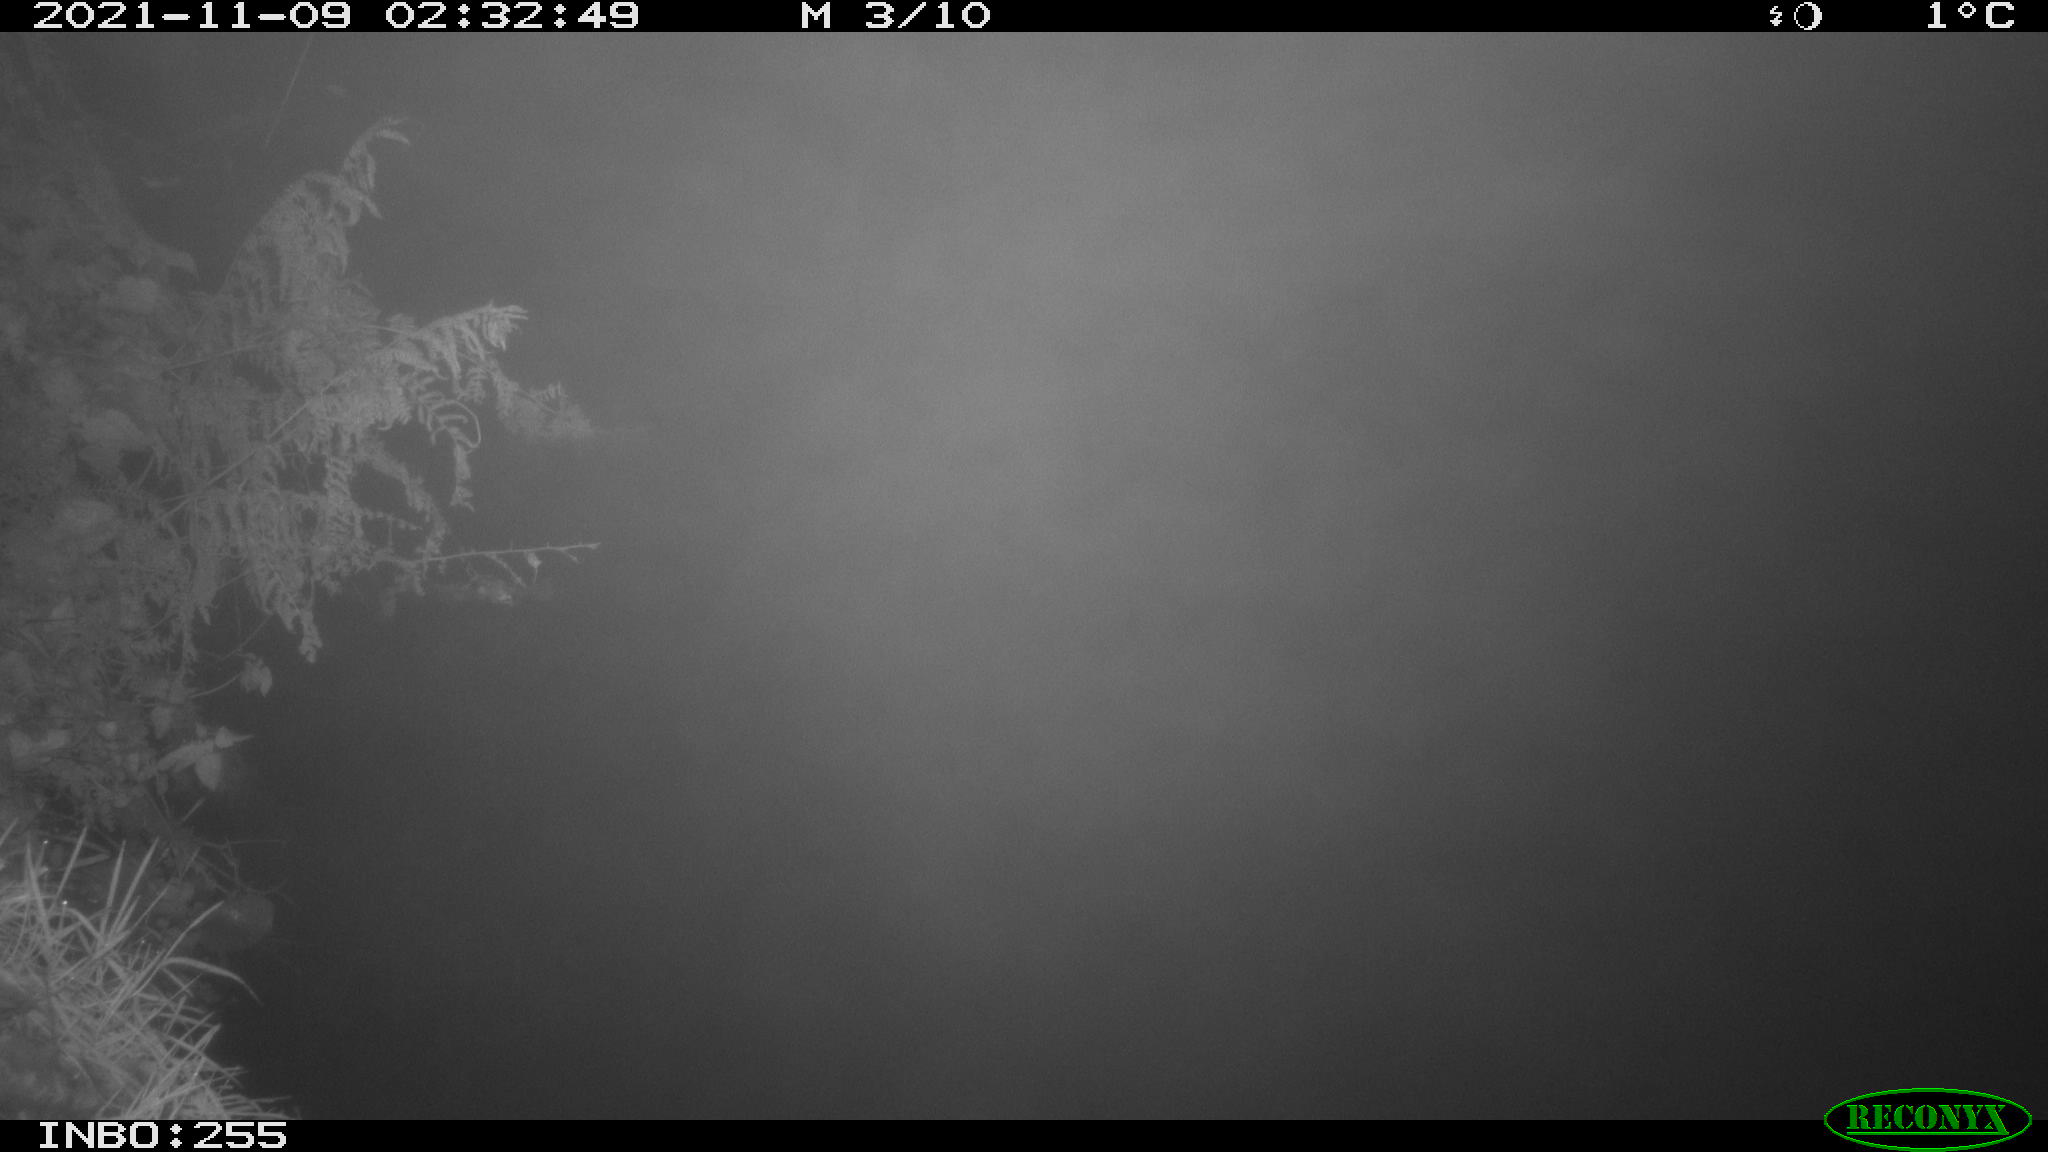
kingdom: Animalia
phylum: Chordata
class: Aves
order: Anseriformes
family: Anatidae
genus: Anas
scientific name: Anas platyrhynchos
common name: Mallard
